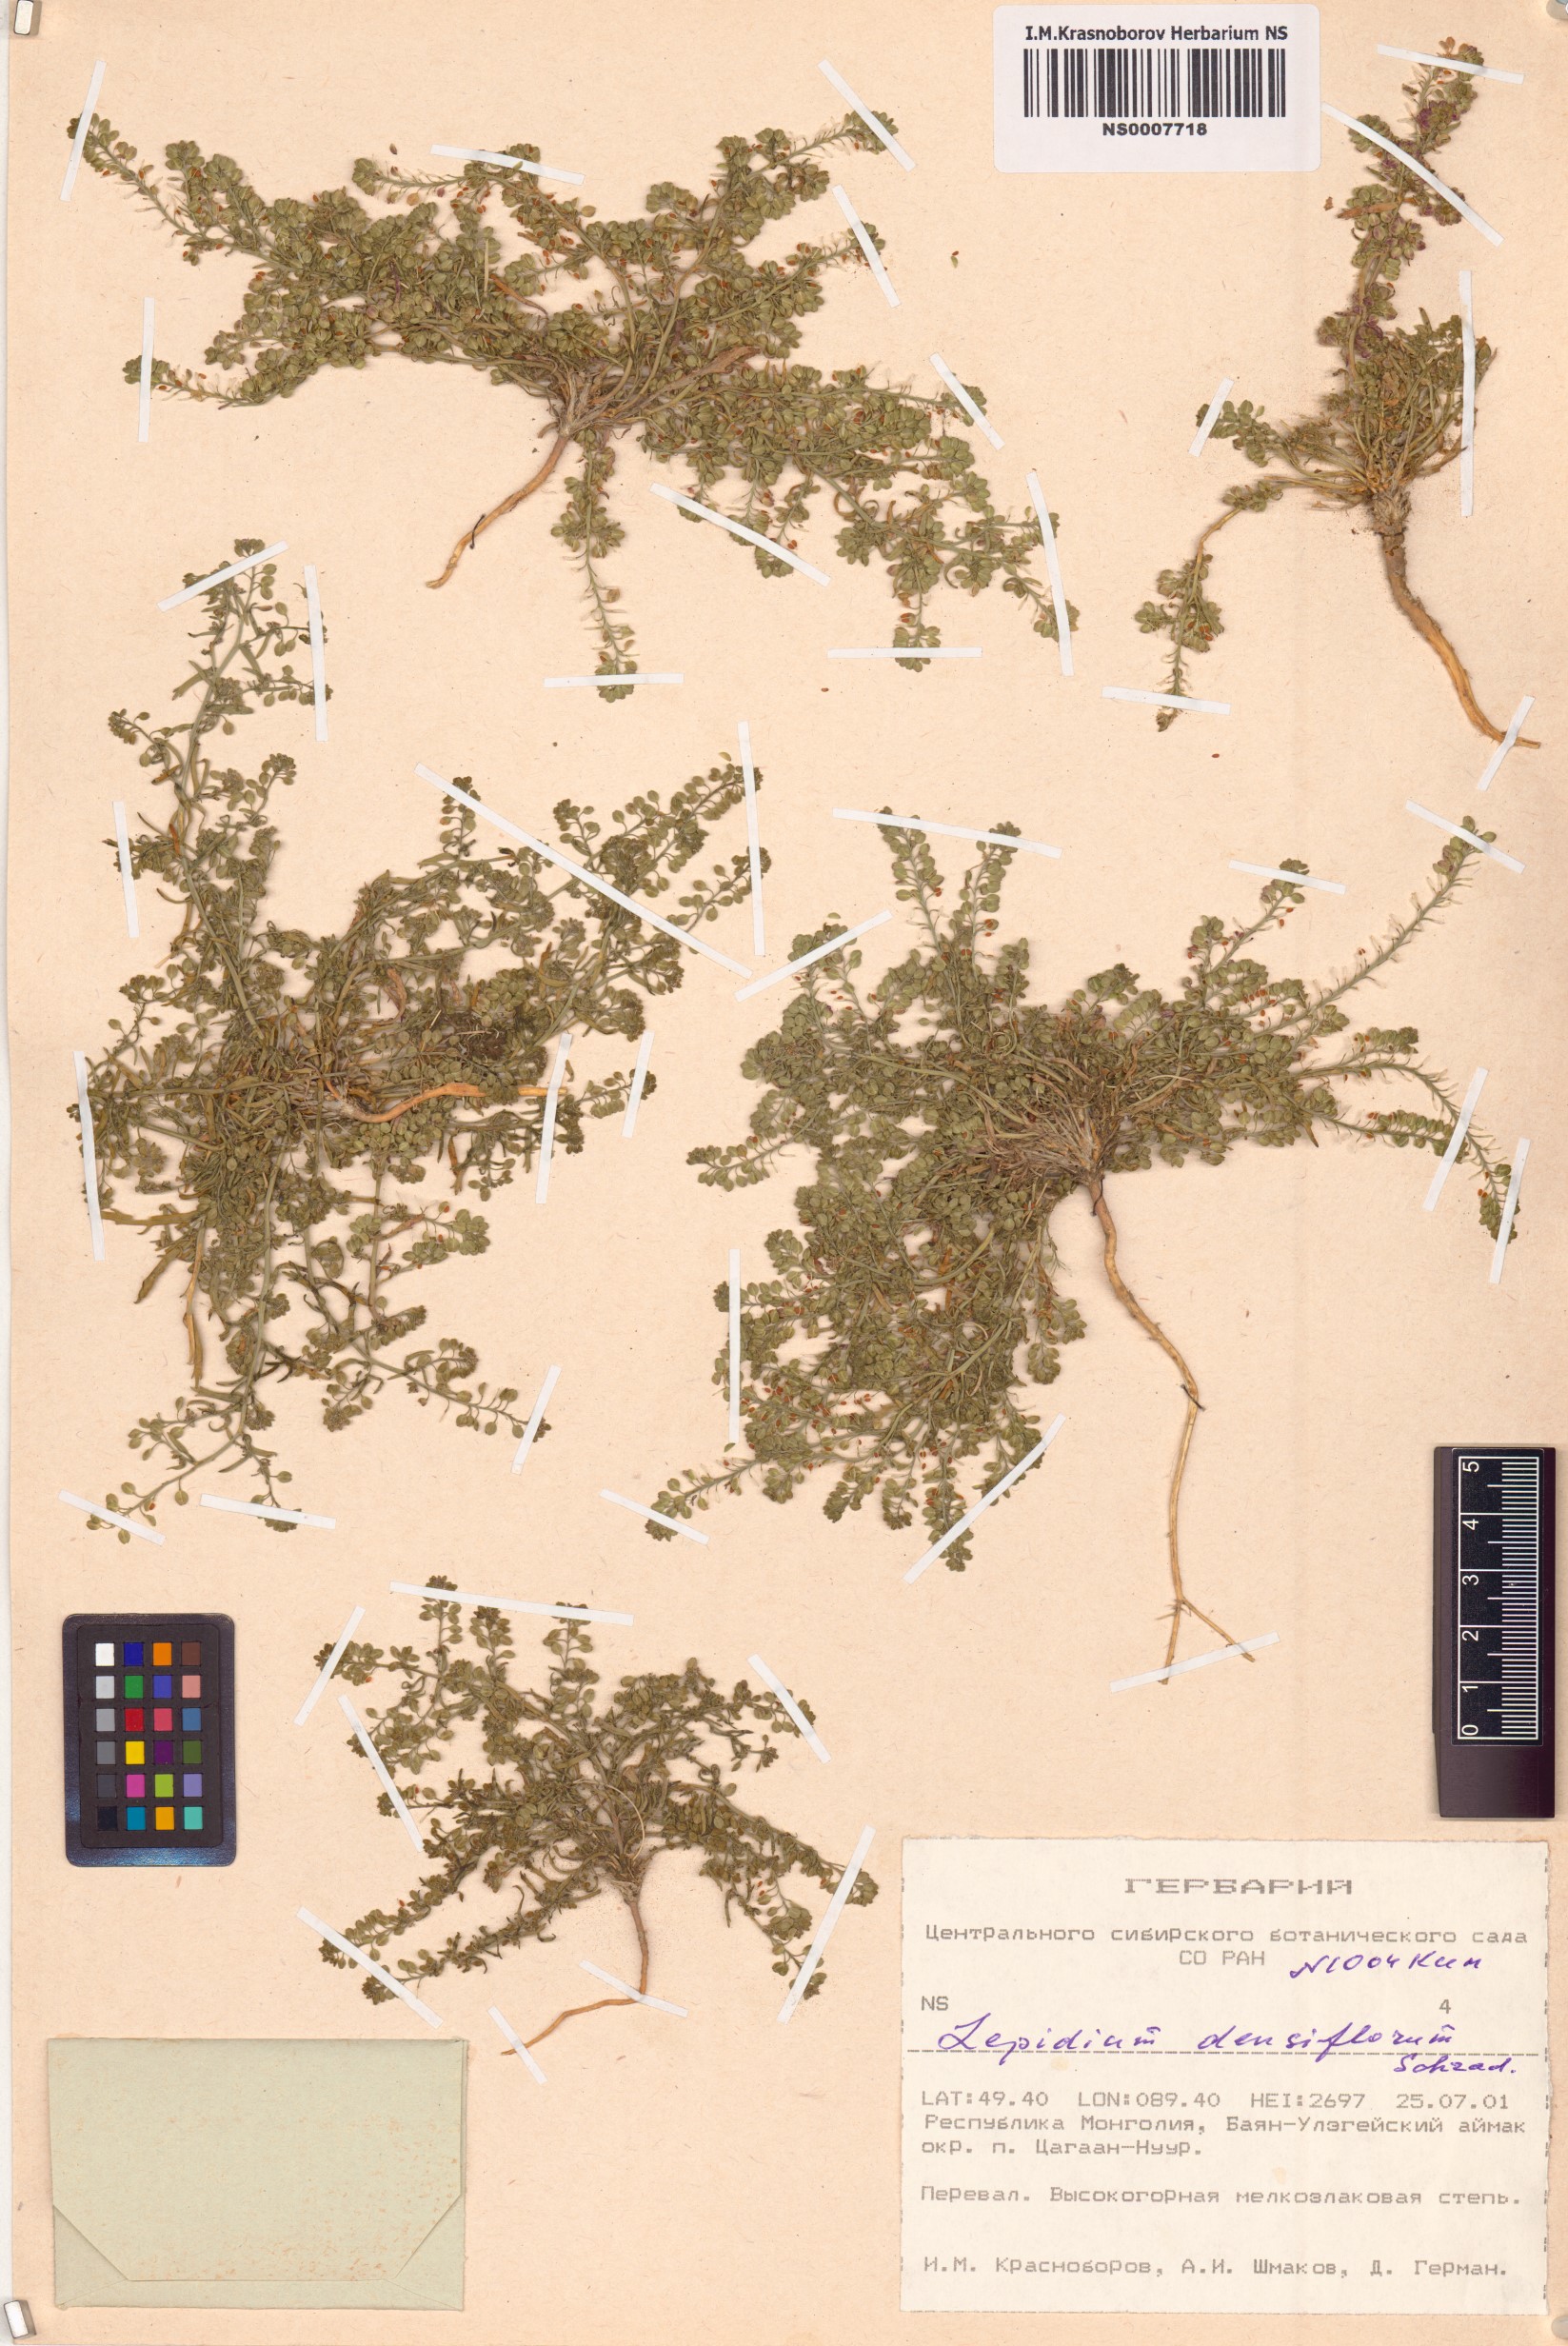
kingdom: Plantae
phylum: Tracheophyta
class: Magnoliopsida
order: Brassicales
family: Brassicaceae
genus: Lepidium
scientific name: Lepidium densiflorum
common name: Miner's pepperwort
